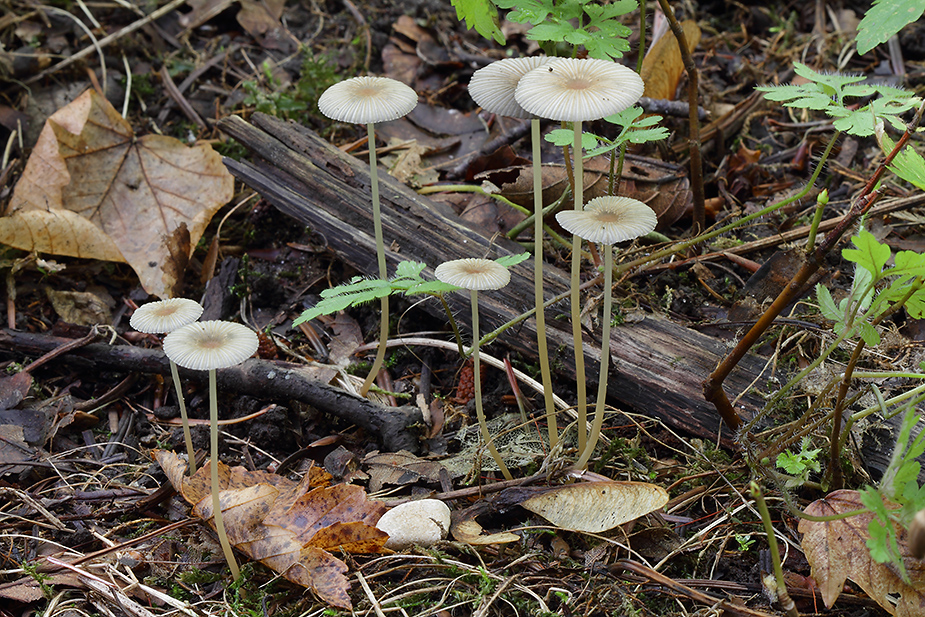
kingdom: Fungi
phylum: Basidiomycota
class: Agaricomycetes
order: Agaricales
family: Psathyrellaceae
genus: Parasola
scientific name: Parasola lactea
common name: glat hjulhat
